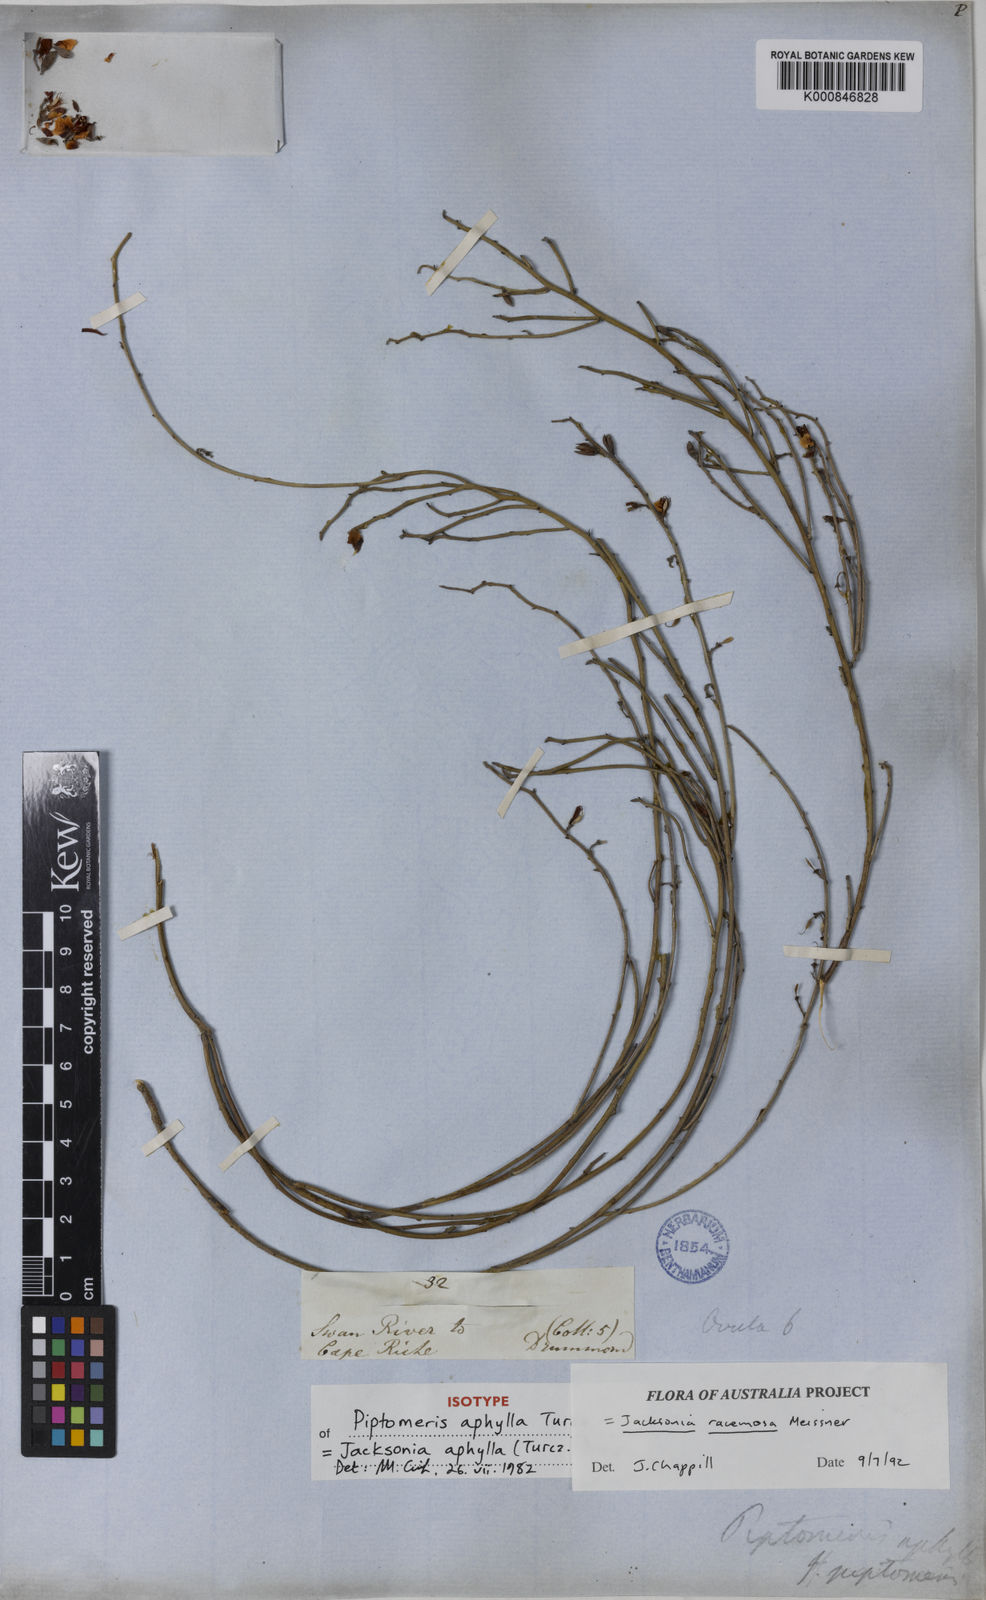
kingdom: Plantae
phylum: Tracheophyta
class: Magnoliopsida
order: Fabales
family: Fabaceae
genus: Jacksonia
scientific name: Jacksonia racemosa
